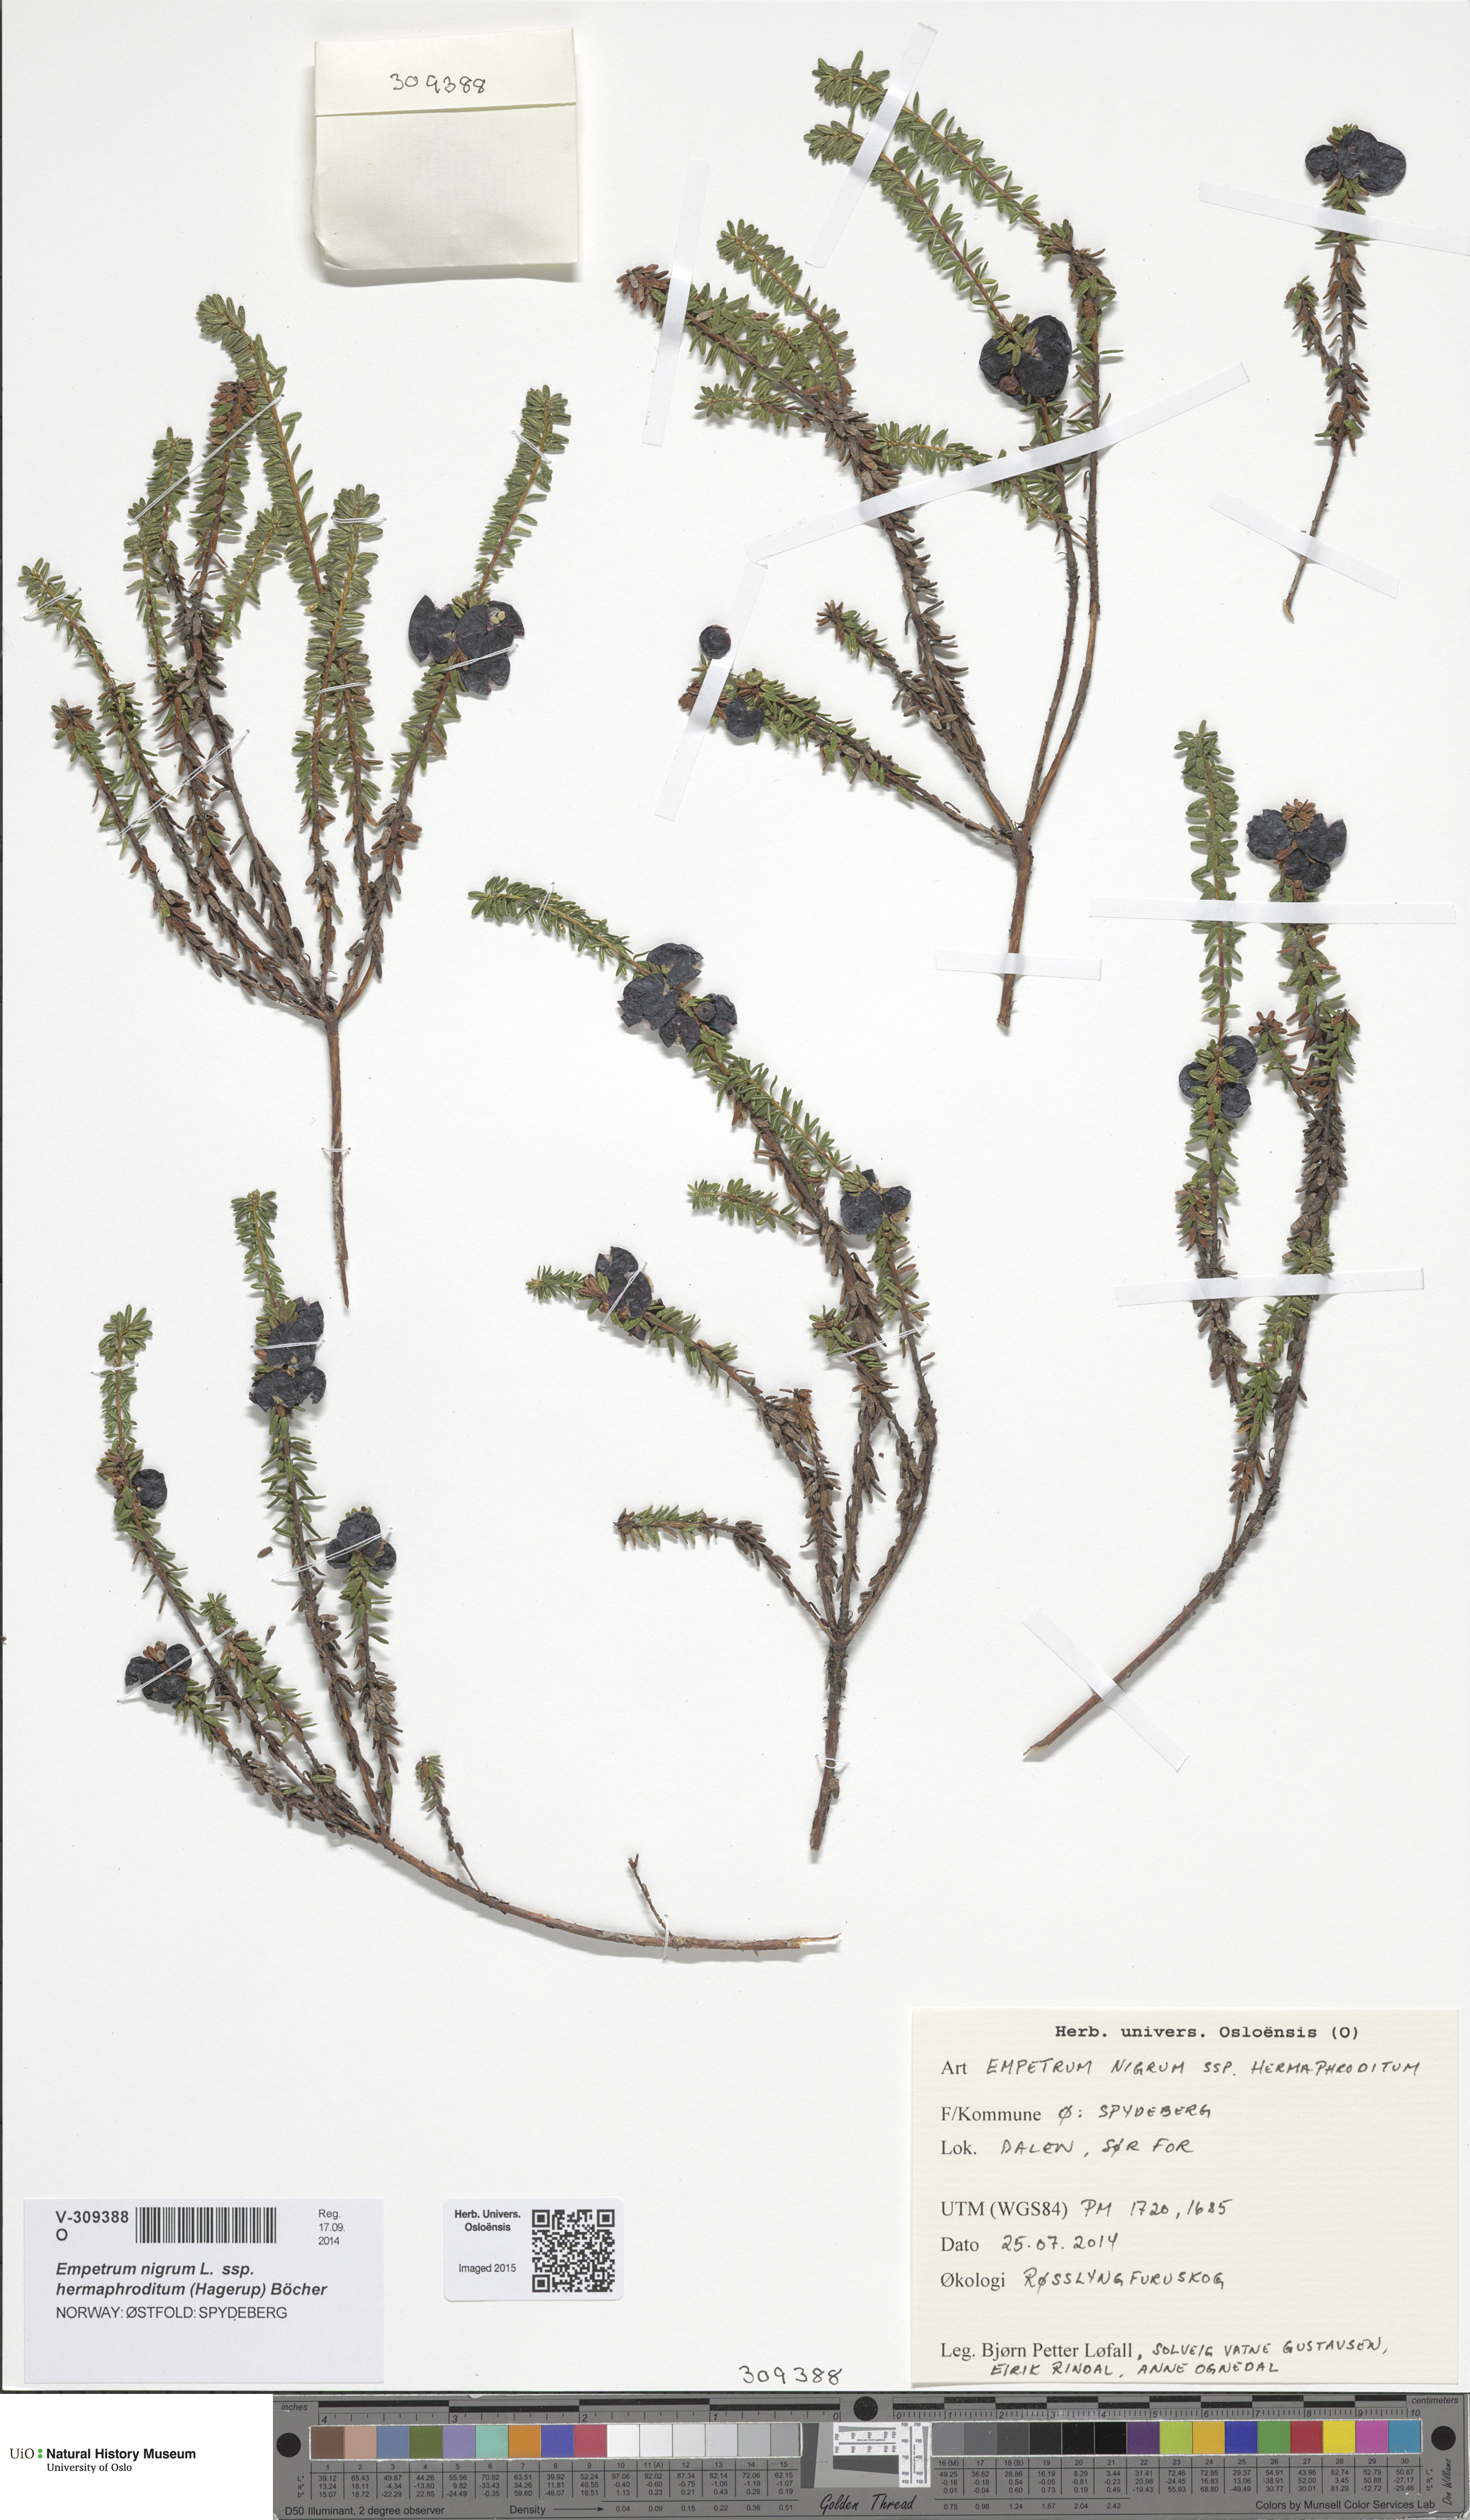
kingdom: Plantae
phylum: Tracheophyta
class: Magnoliopsida
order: Ericales
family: Ericaceae
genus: Empetrum
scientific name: Empetrum hermaphroditum
